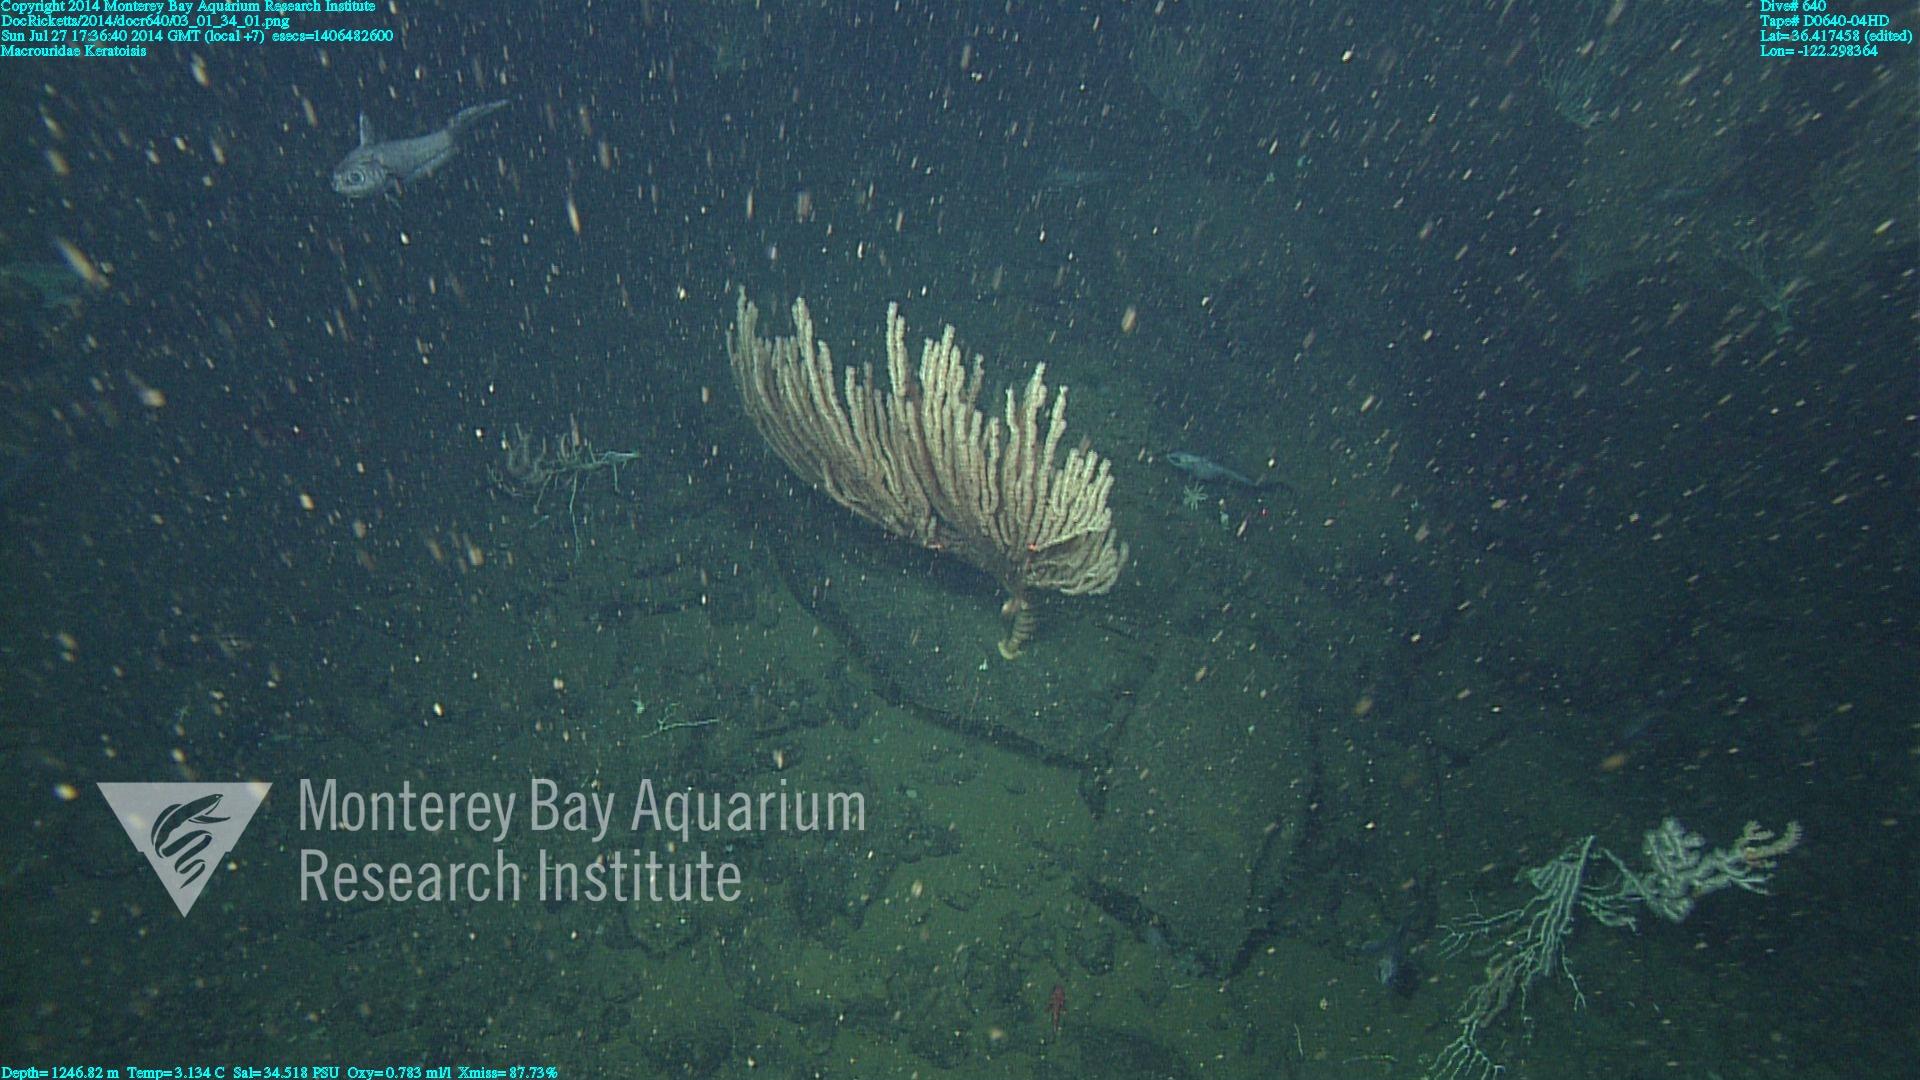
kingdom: Animalia
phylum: Cnidaria
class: Anthozoa
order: Scleralcyonacea
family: Keratoisididae
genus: Keratoisis
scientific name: Keratoisis
